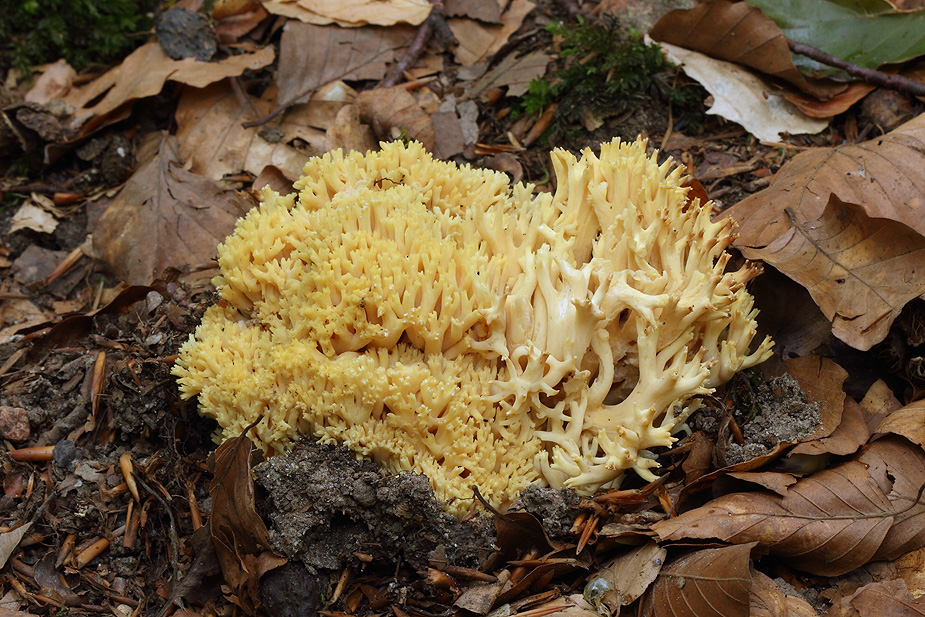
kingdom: Fungi
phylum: Basidiomycota
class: Agaricomycetes
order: Gomphales
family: Gomphaceae
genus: Ramaria
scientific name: Ramaria flavescens
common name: stor koralsvamp
